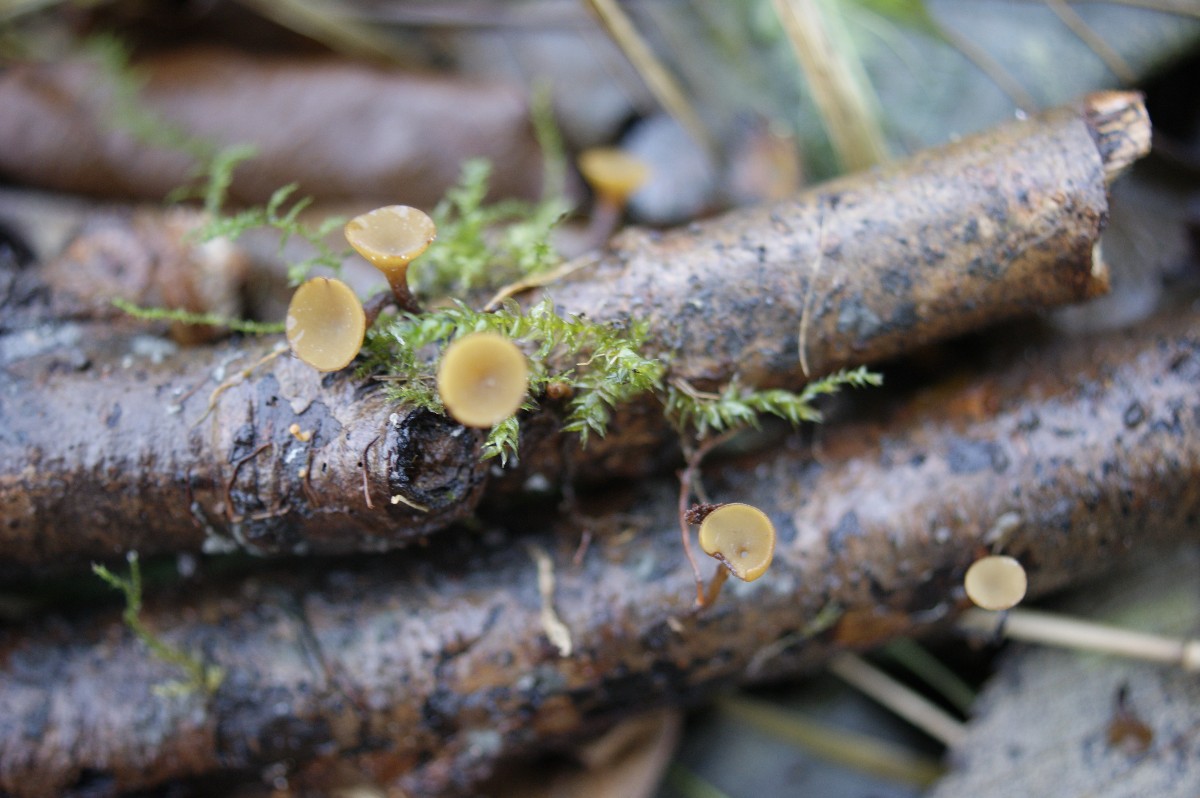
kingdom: Fungi
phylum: Ascomycota
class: Leotiomycetes
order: Helotiales
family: Rutstroemiaceae
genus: Rutstroemia
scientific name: Rutstroemia firma
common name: gren-brunskive
